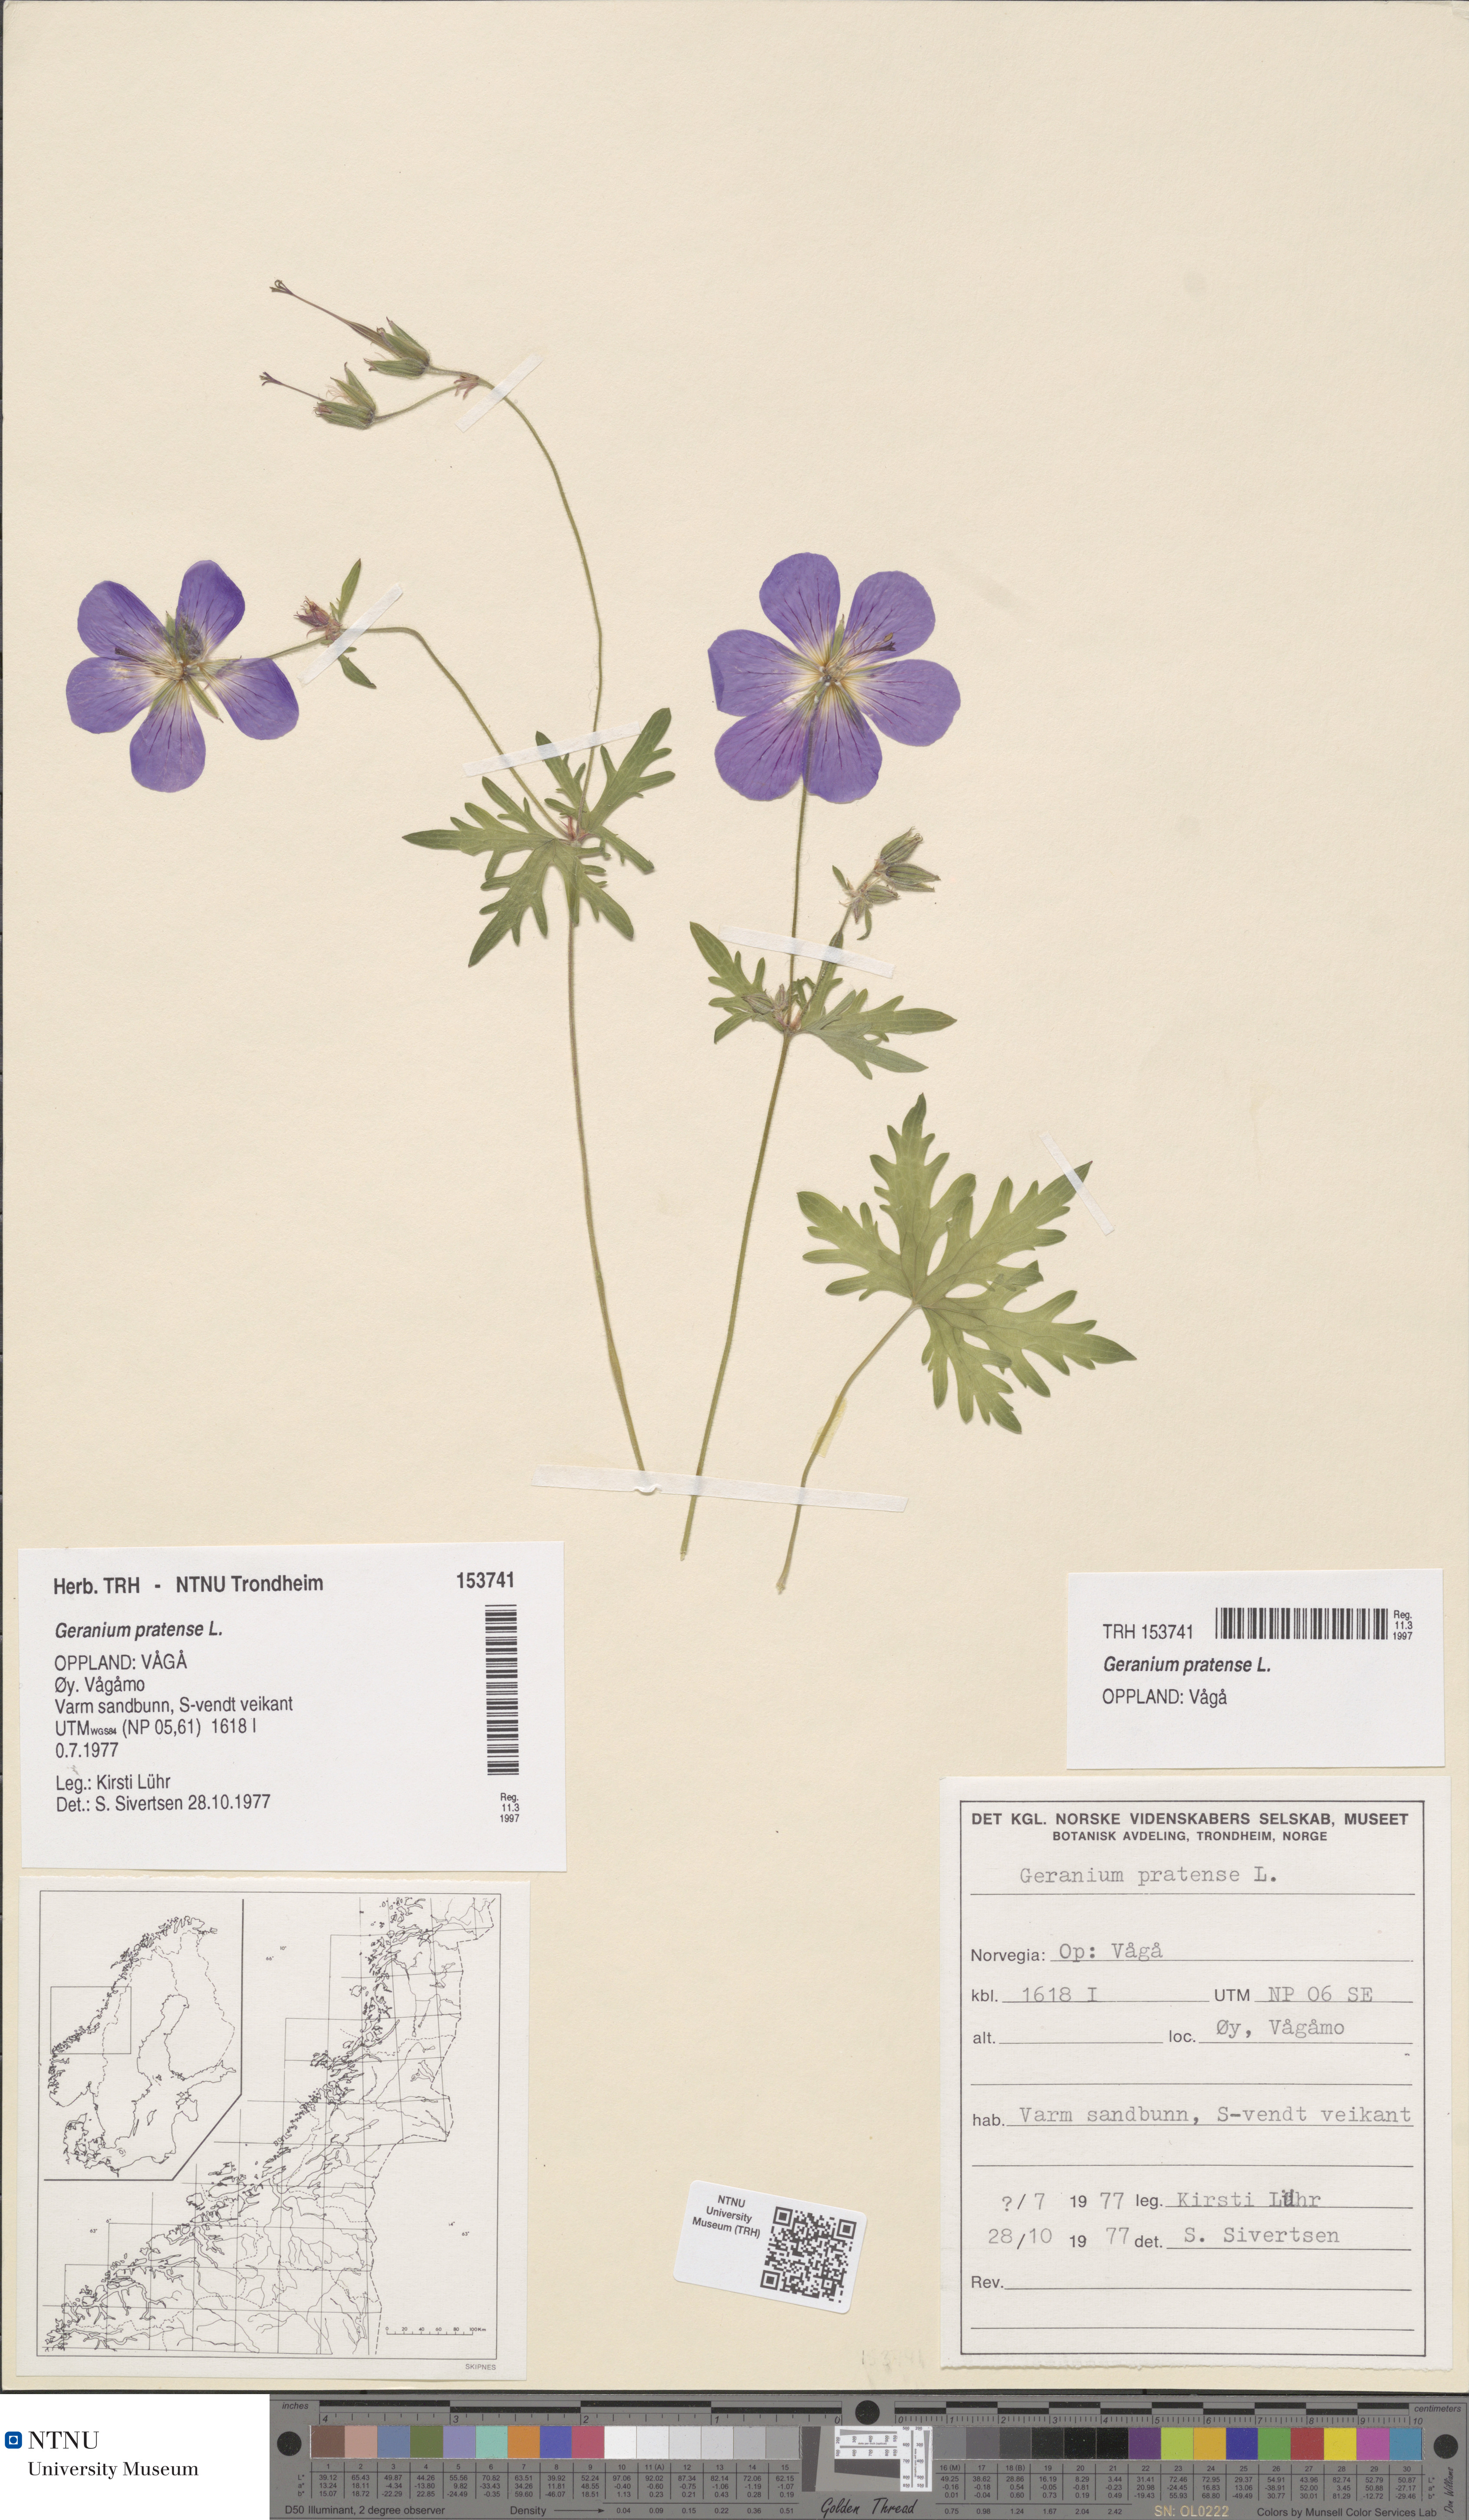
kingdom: Plantae
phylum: Tracheophyta
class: Magnoliopsida
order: Geraniales
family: Geraniaceae
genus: Geranium
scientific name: Geranium pratense
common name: Meadow crane's-bill
